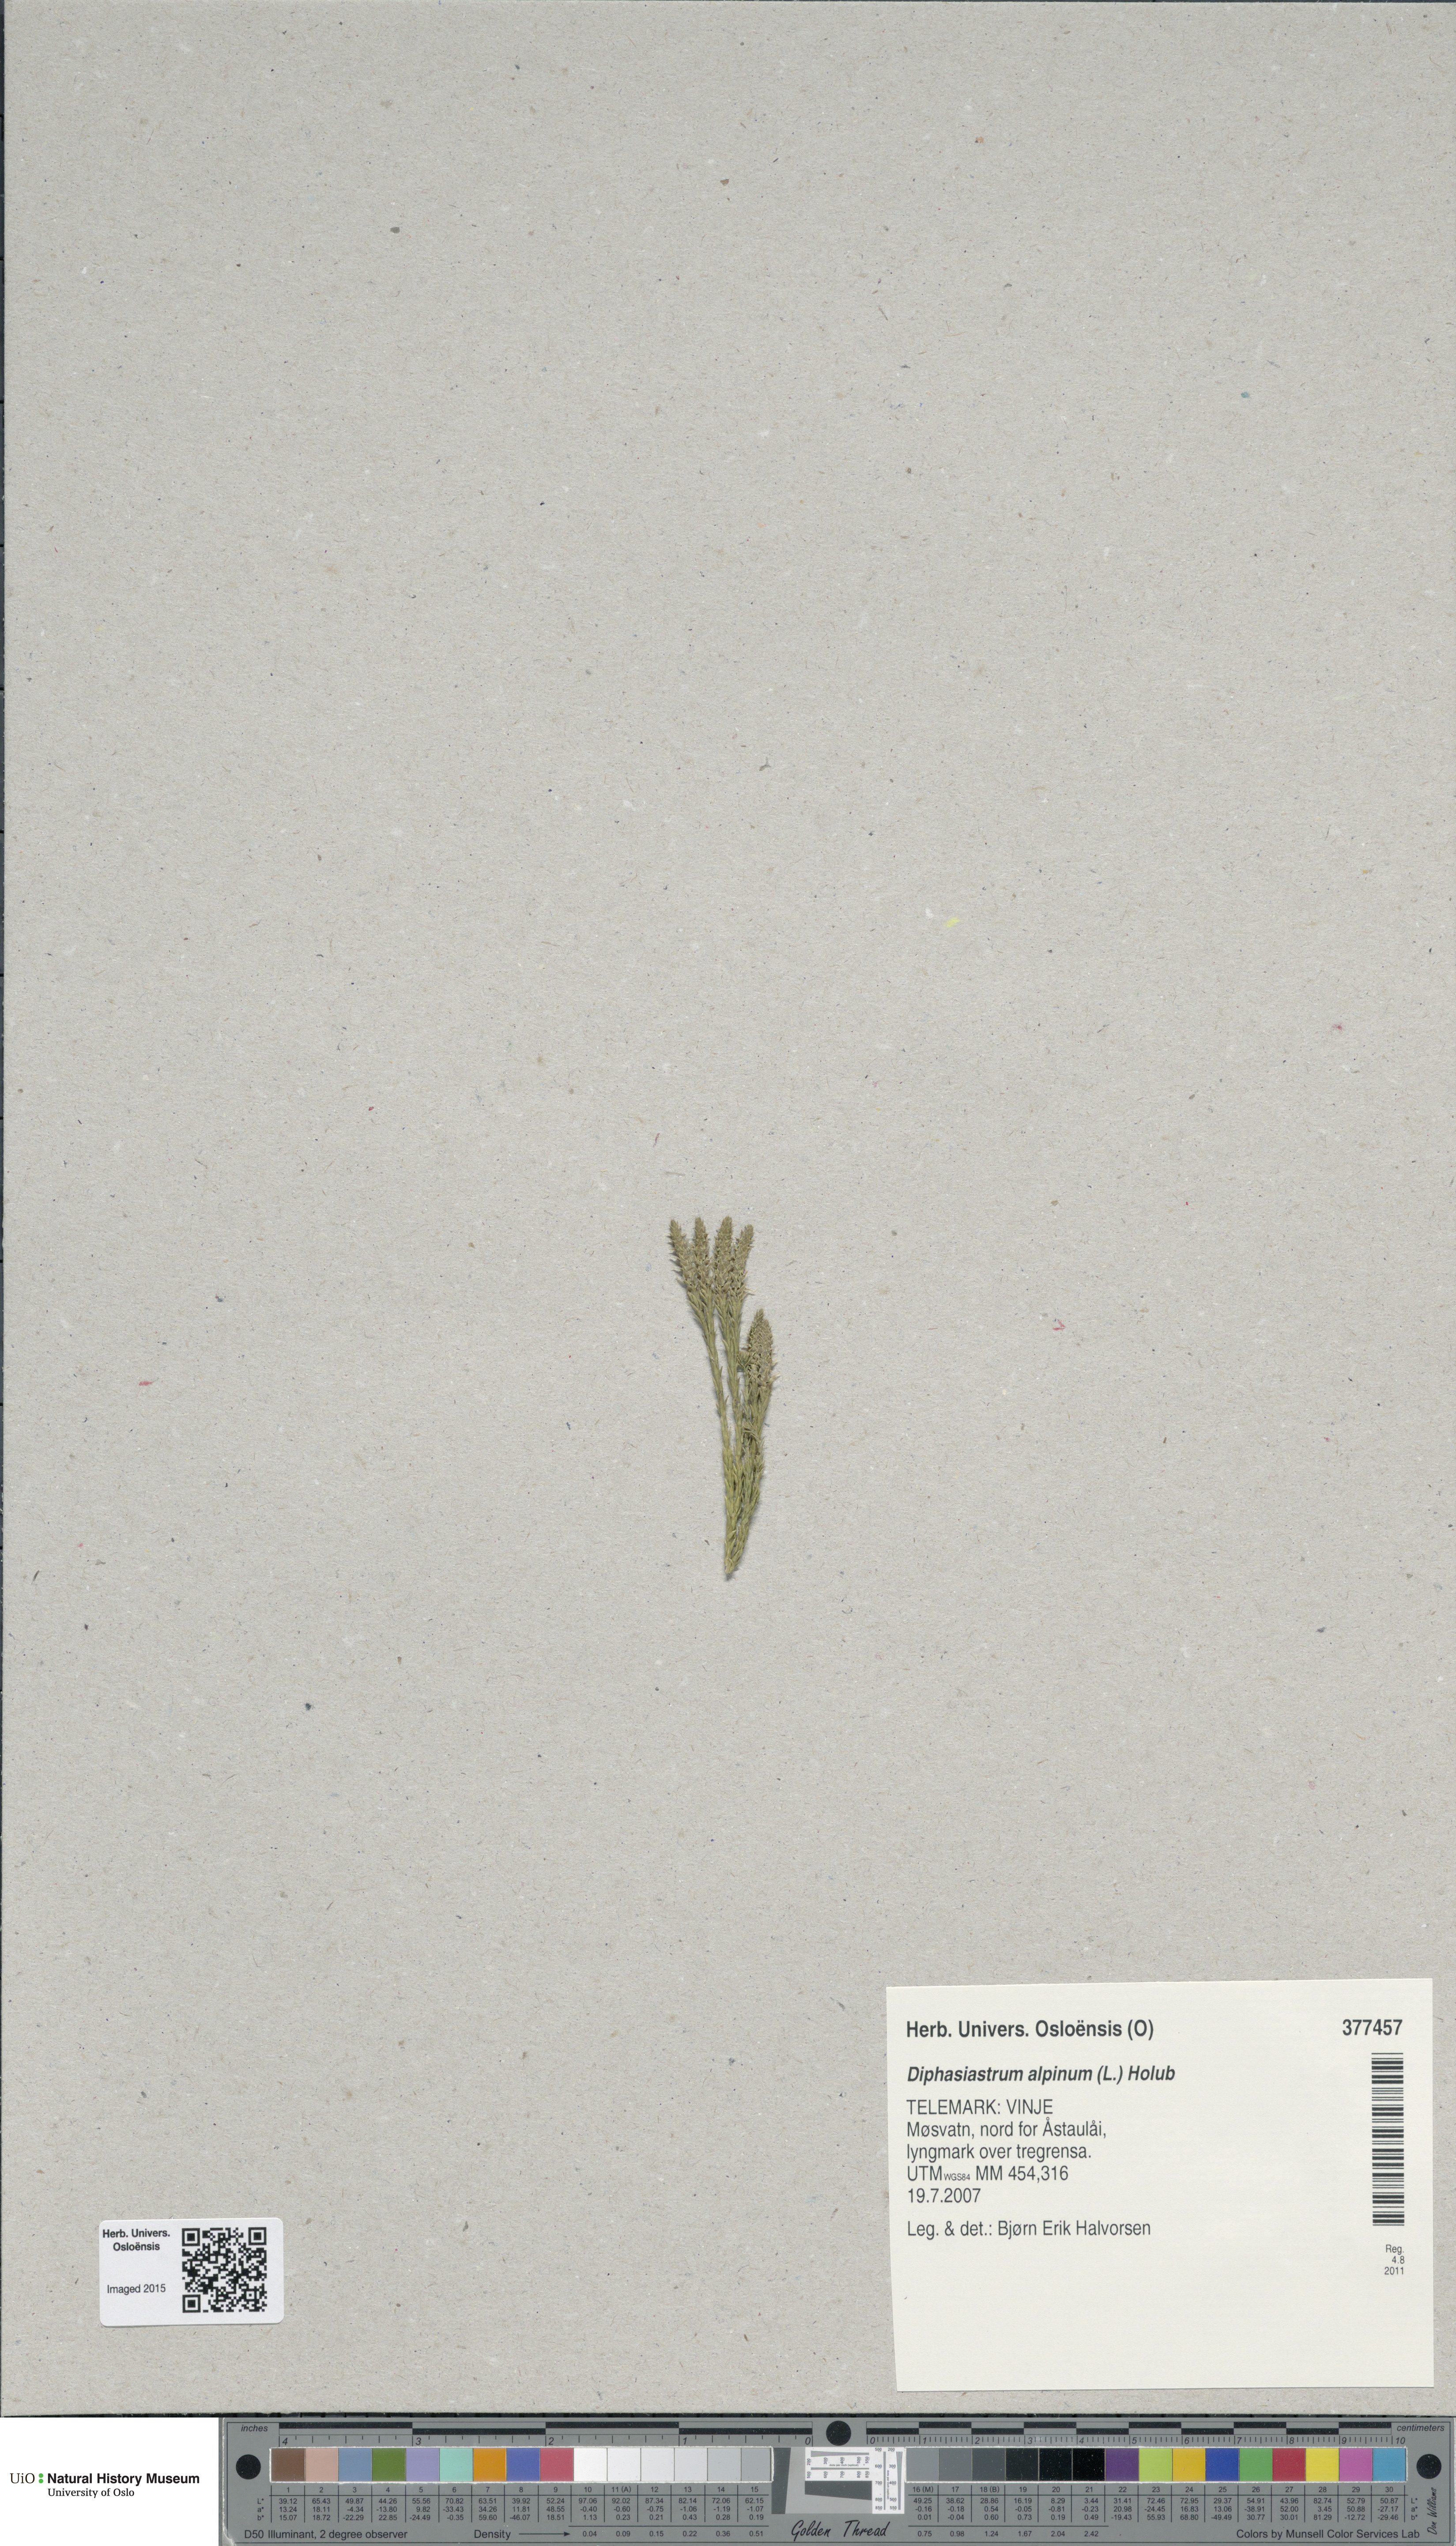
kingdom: Plantae
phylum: Tracheophyta
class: Lycopodiopsida
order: Lycopodiales
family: Lycopodiaceae
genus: Diphasiastrum
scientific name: Diphasiastrum alpinum
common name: Alpine clubmoss
